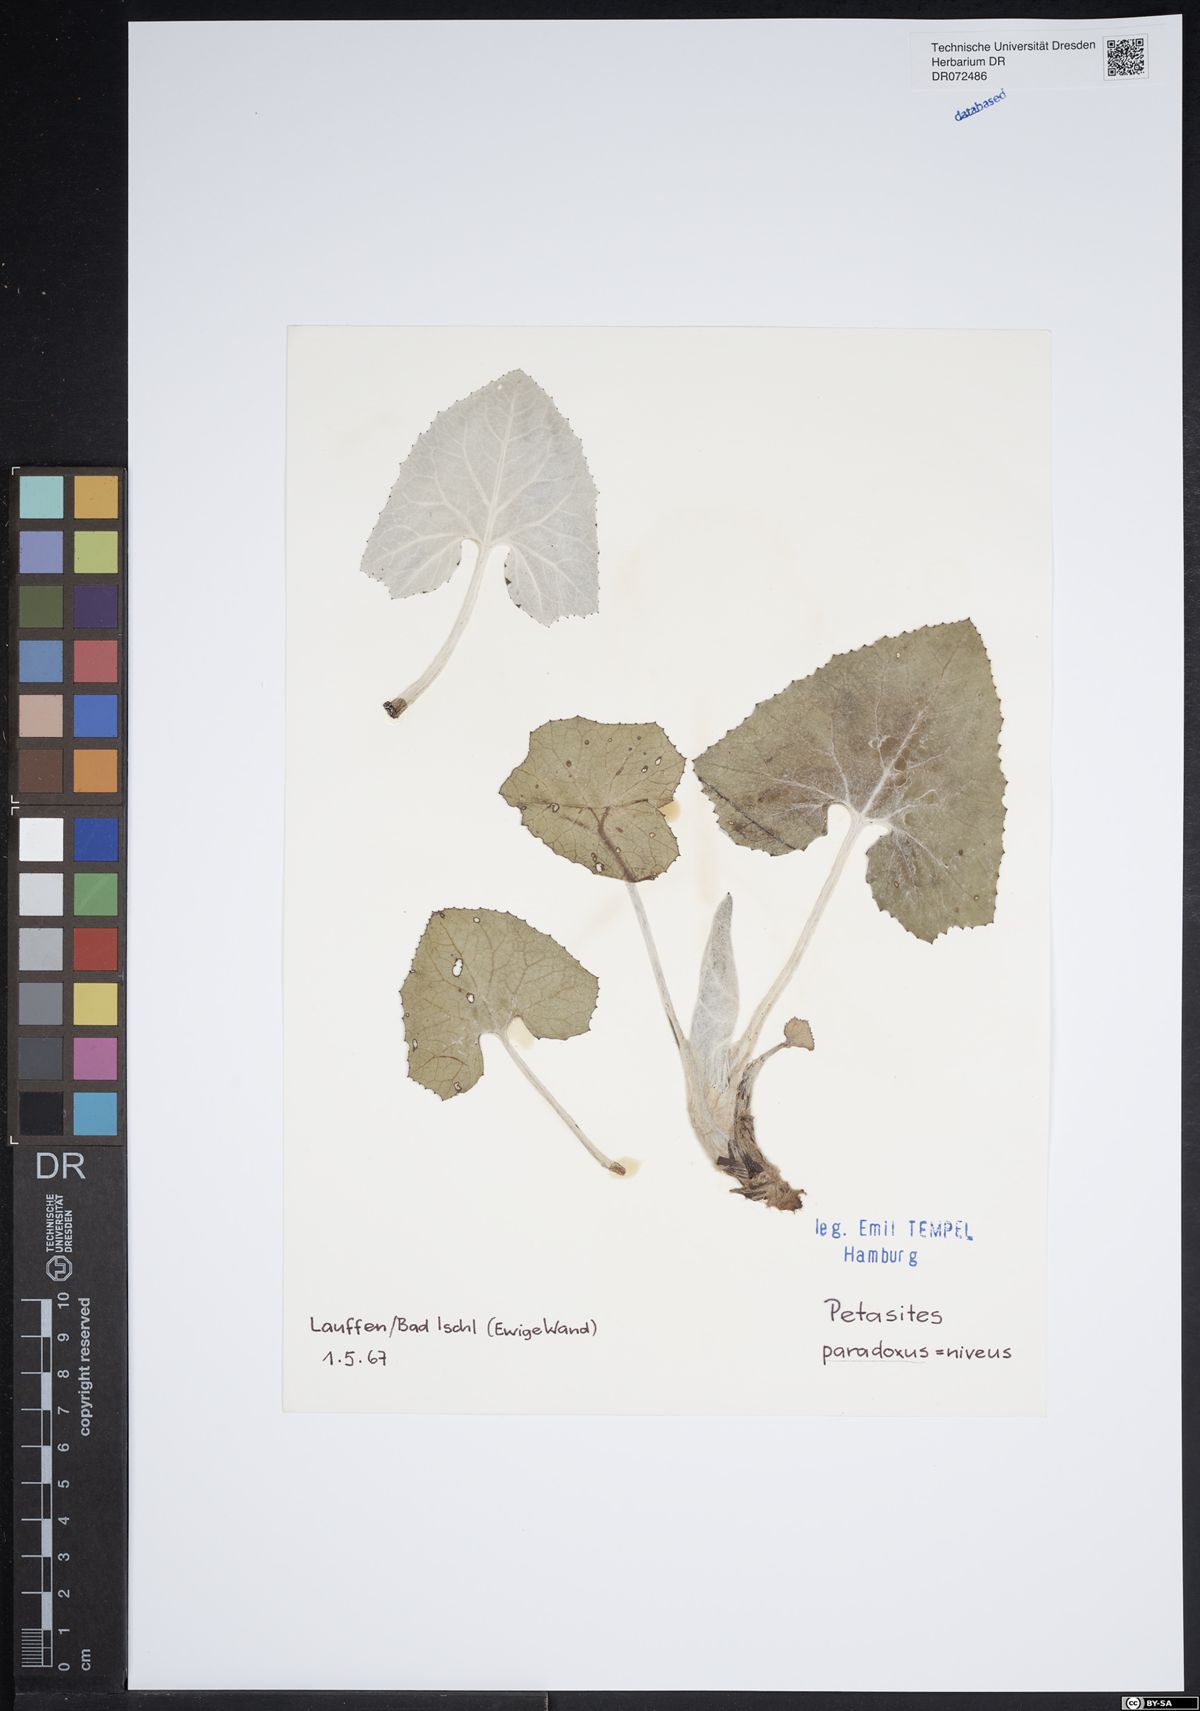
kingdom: Plantae
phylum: Tracheophyta
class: Magnoliopsida
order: Asterales
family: Asteraceae
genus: Petasites
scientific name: Petasites paradoxus
